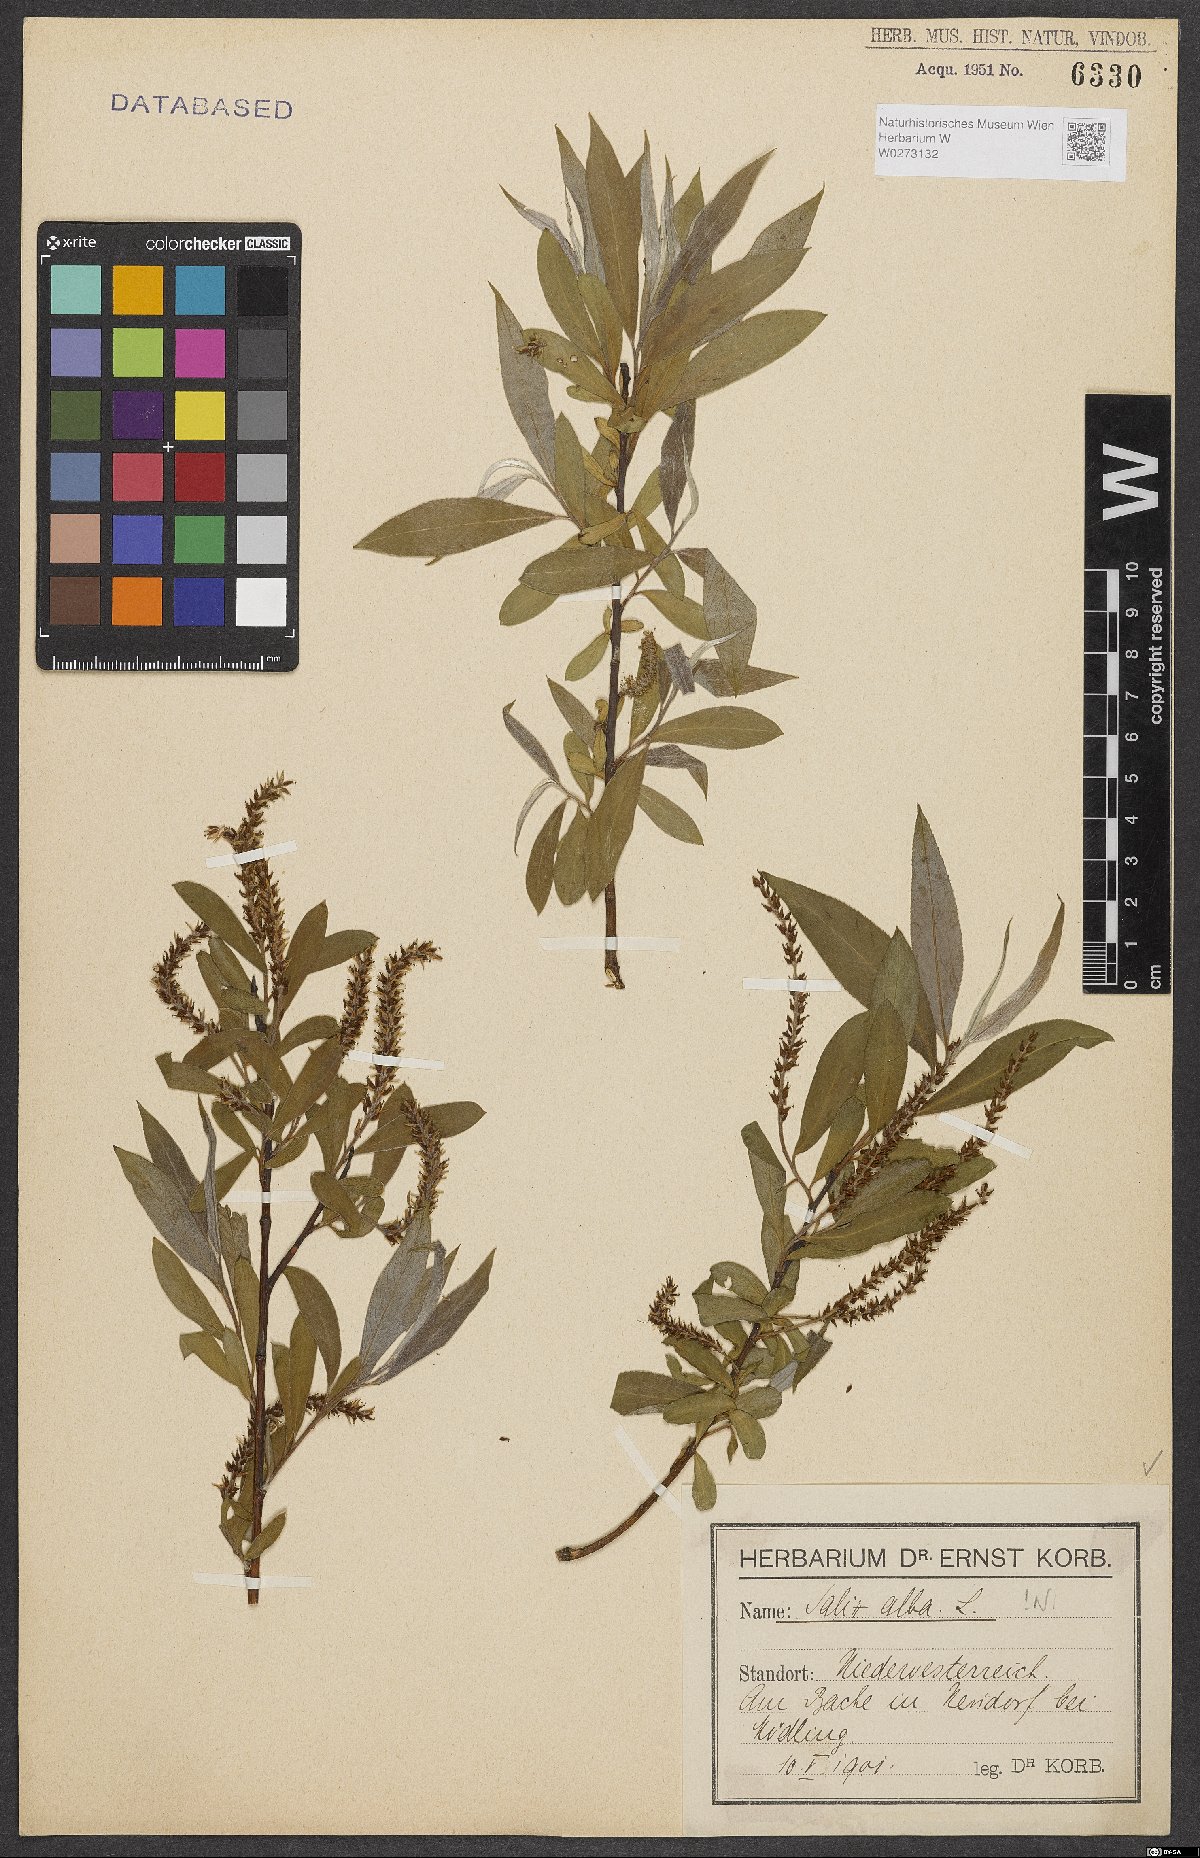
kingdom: Plantae
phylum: Tracheophyta
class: Magnoliopsida
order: Malpighiales
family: Salicaceae
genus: Salix
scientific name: Salix alba
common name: White willow
